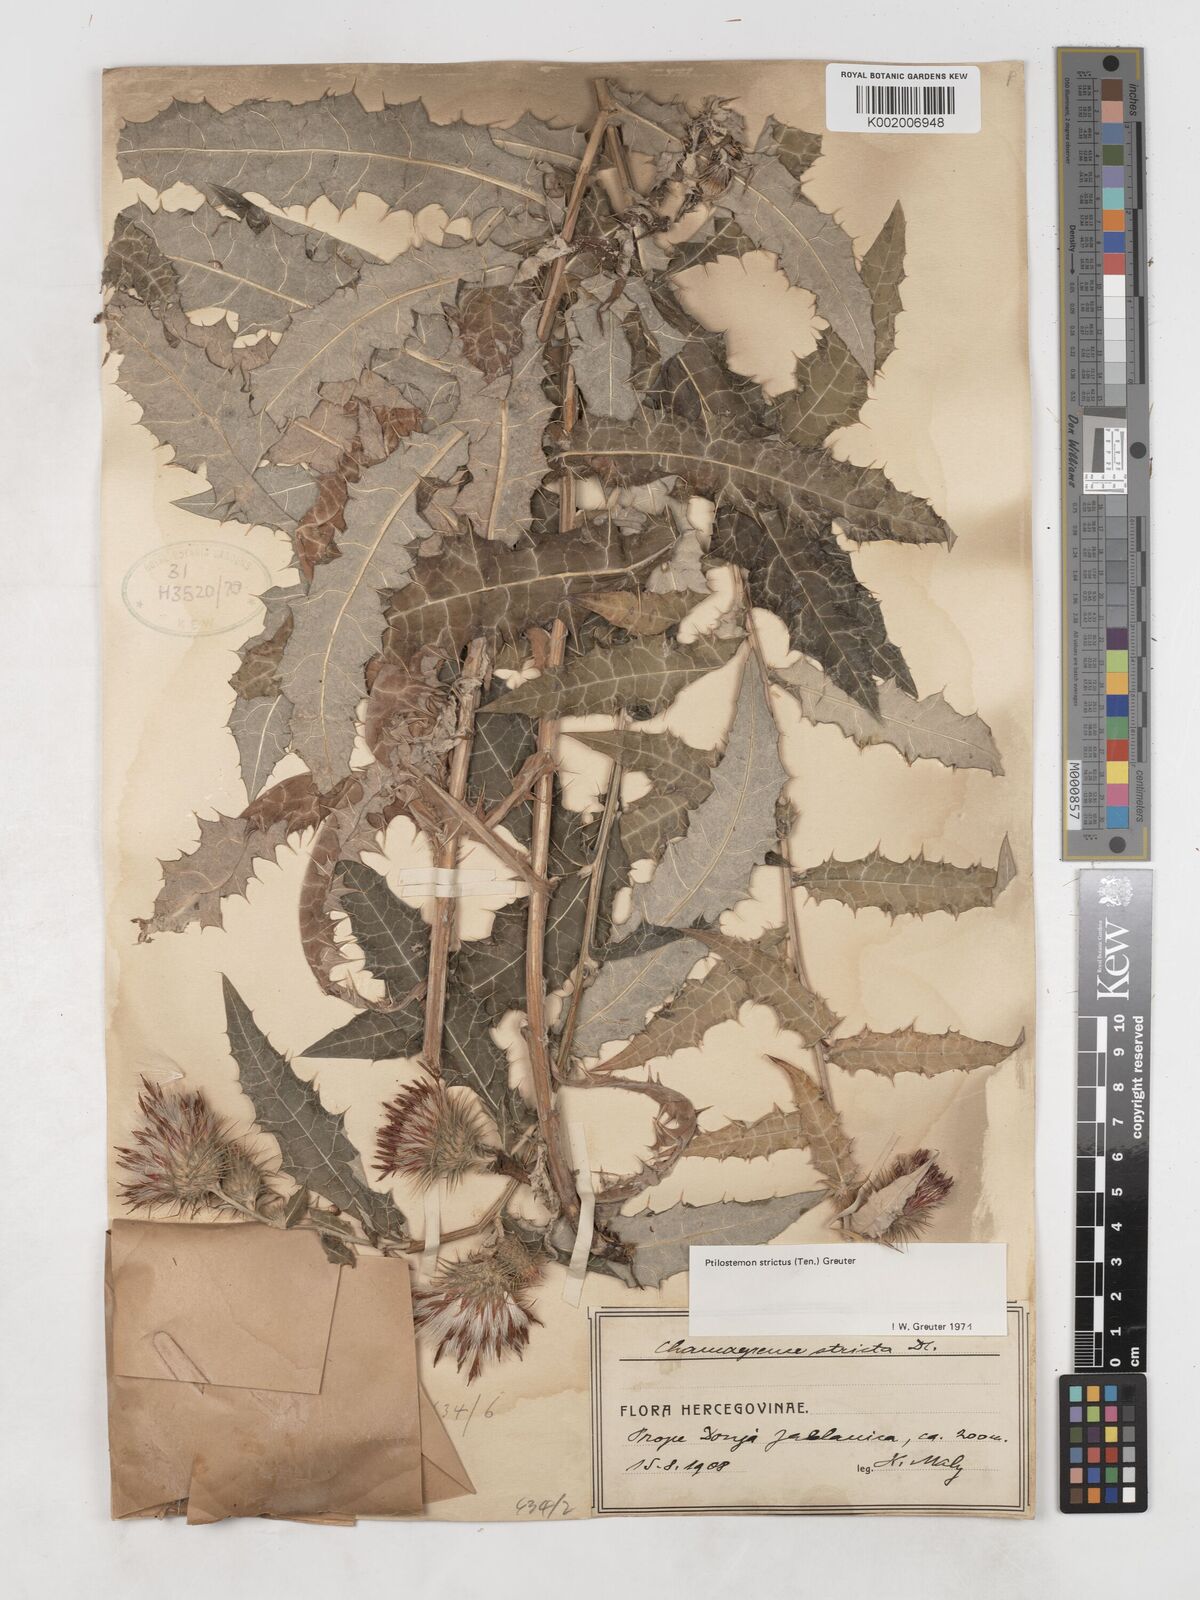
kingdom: Plantae
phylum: Tracheophyta
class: Magnoliopsida
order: Asterales
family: Asteraceae
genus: Ptilostemon
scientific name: Ptilostemon strictus
